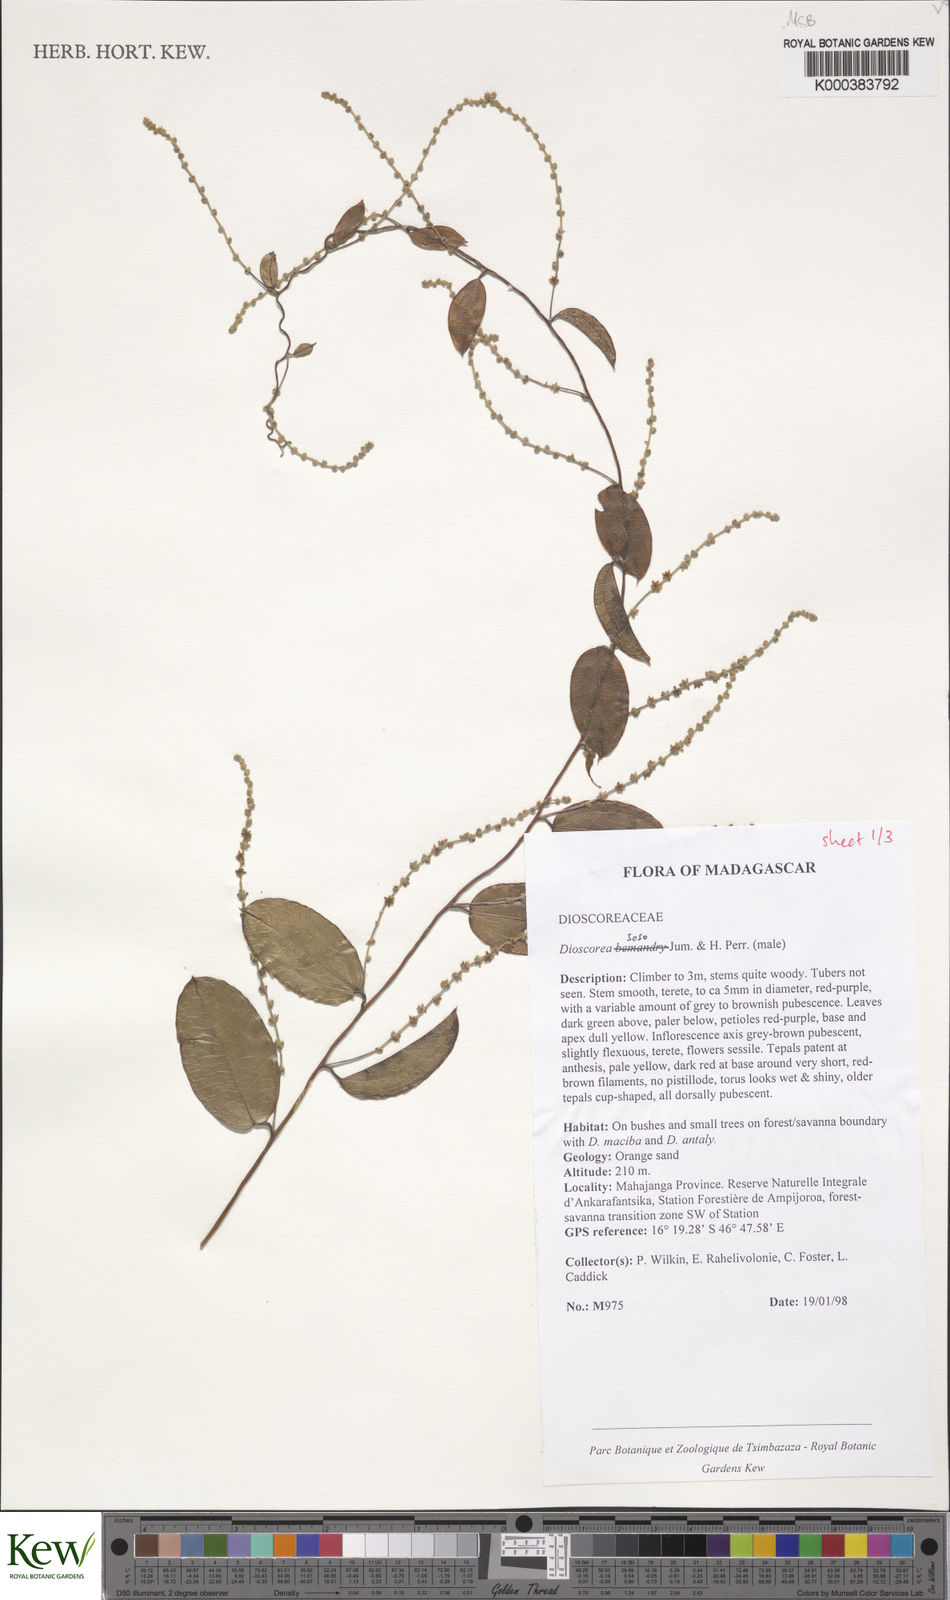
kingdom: Plantae
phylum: Tracheophyta
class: Liliopsida
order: Dioscoreales
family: Dioscoreaceae
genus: Dioscorea
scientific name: Dioscorea
